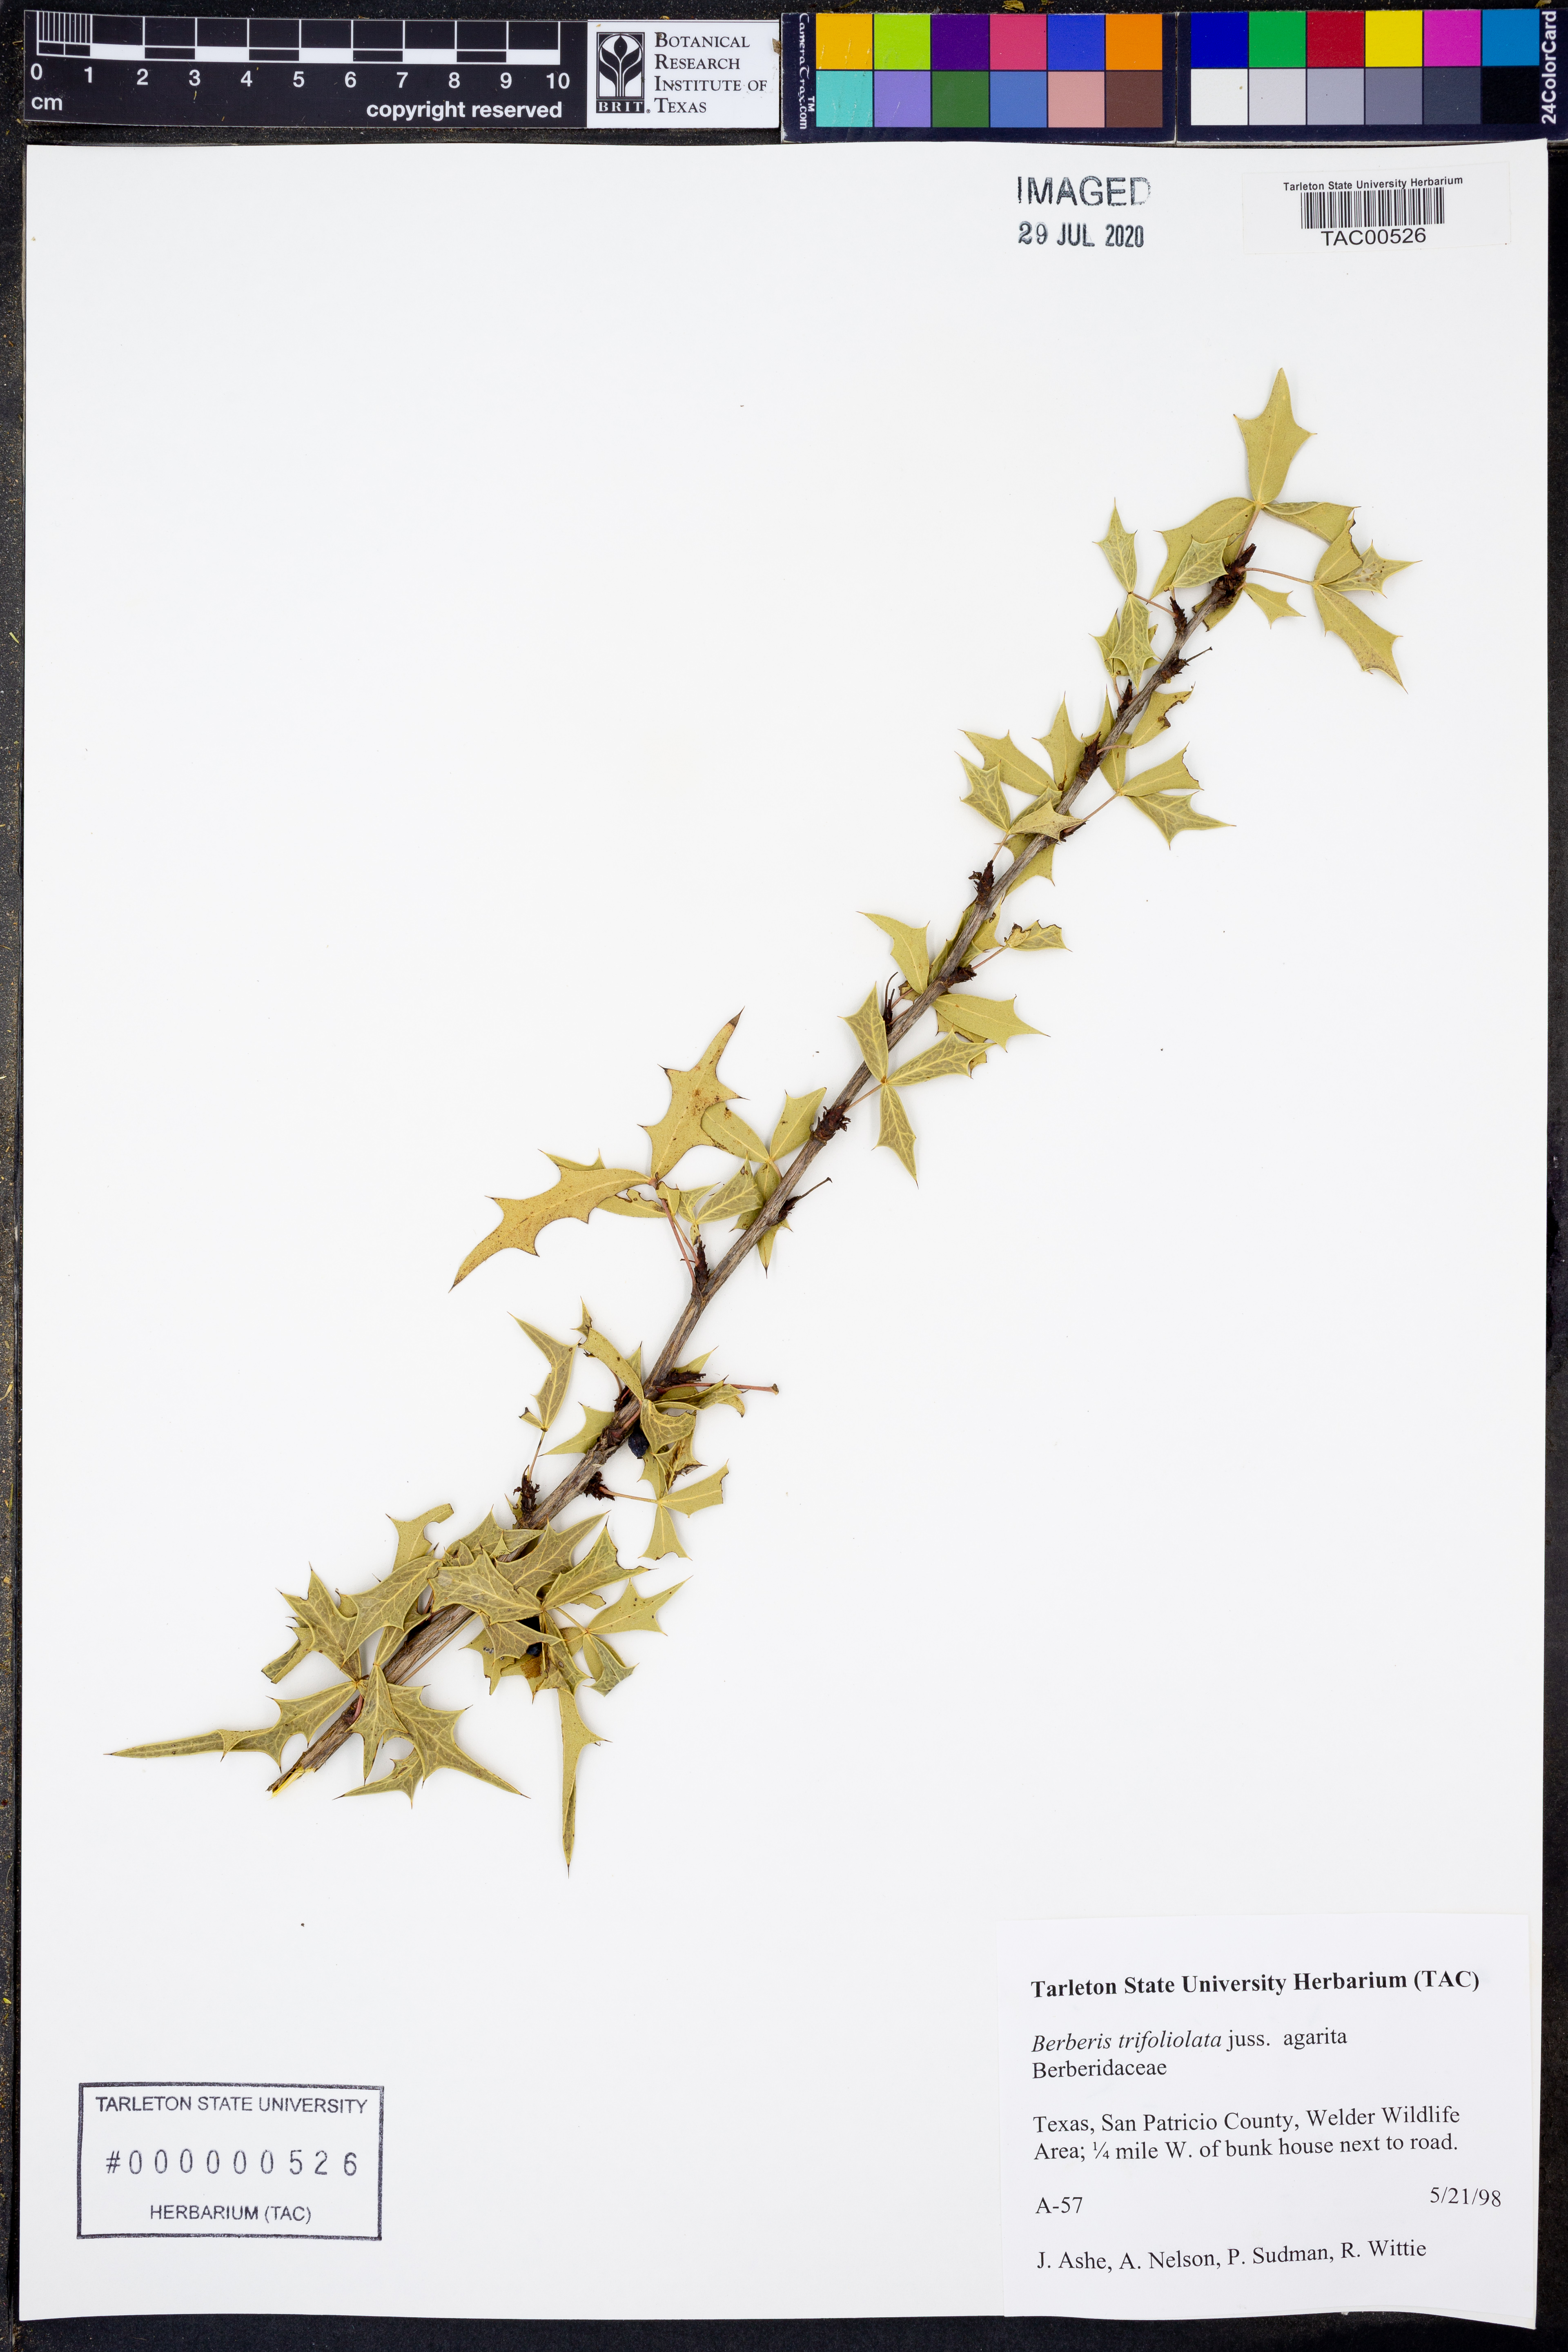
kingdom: Plantae
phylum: Tracheophyta
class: Magnoliopsida
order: Ranunculales
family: Berberidaceae
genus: Alloberberis
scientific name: Alloberberis trifoliolata
